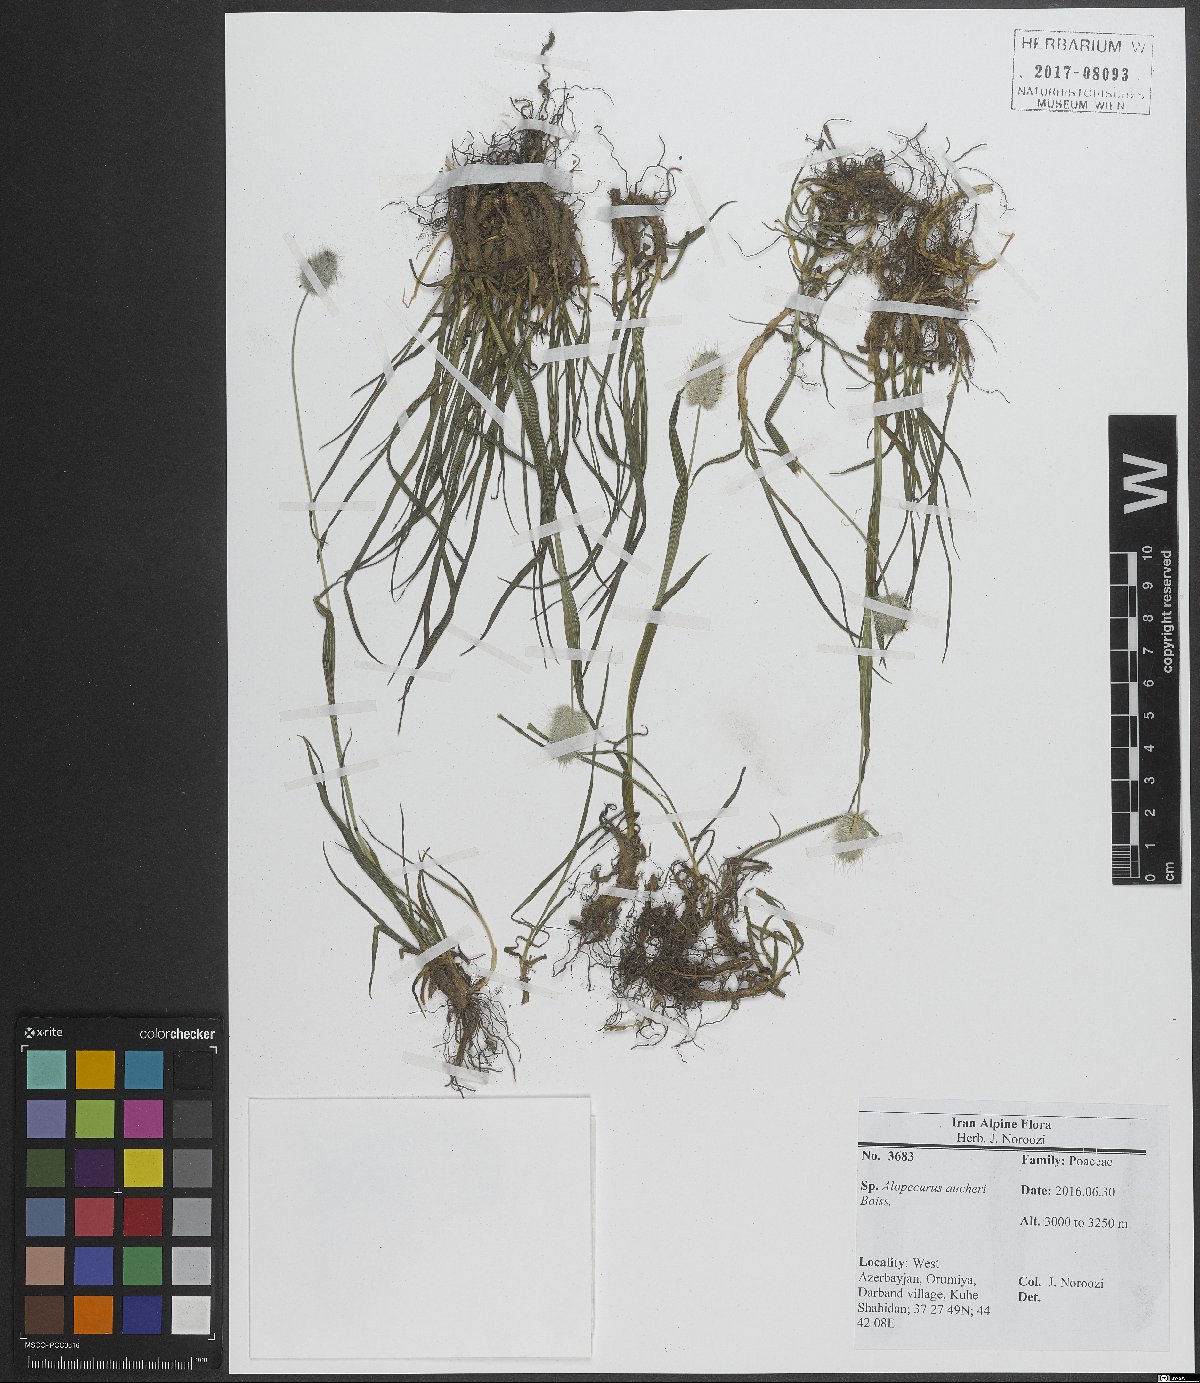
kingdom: Plantae
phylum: Tracheophyta
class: Liliopsida
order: Poales
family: Poaceae
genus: Alopecurus
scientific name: Alopecurus aucheri
